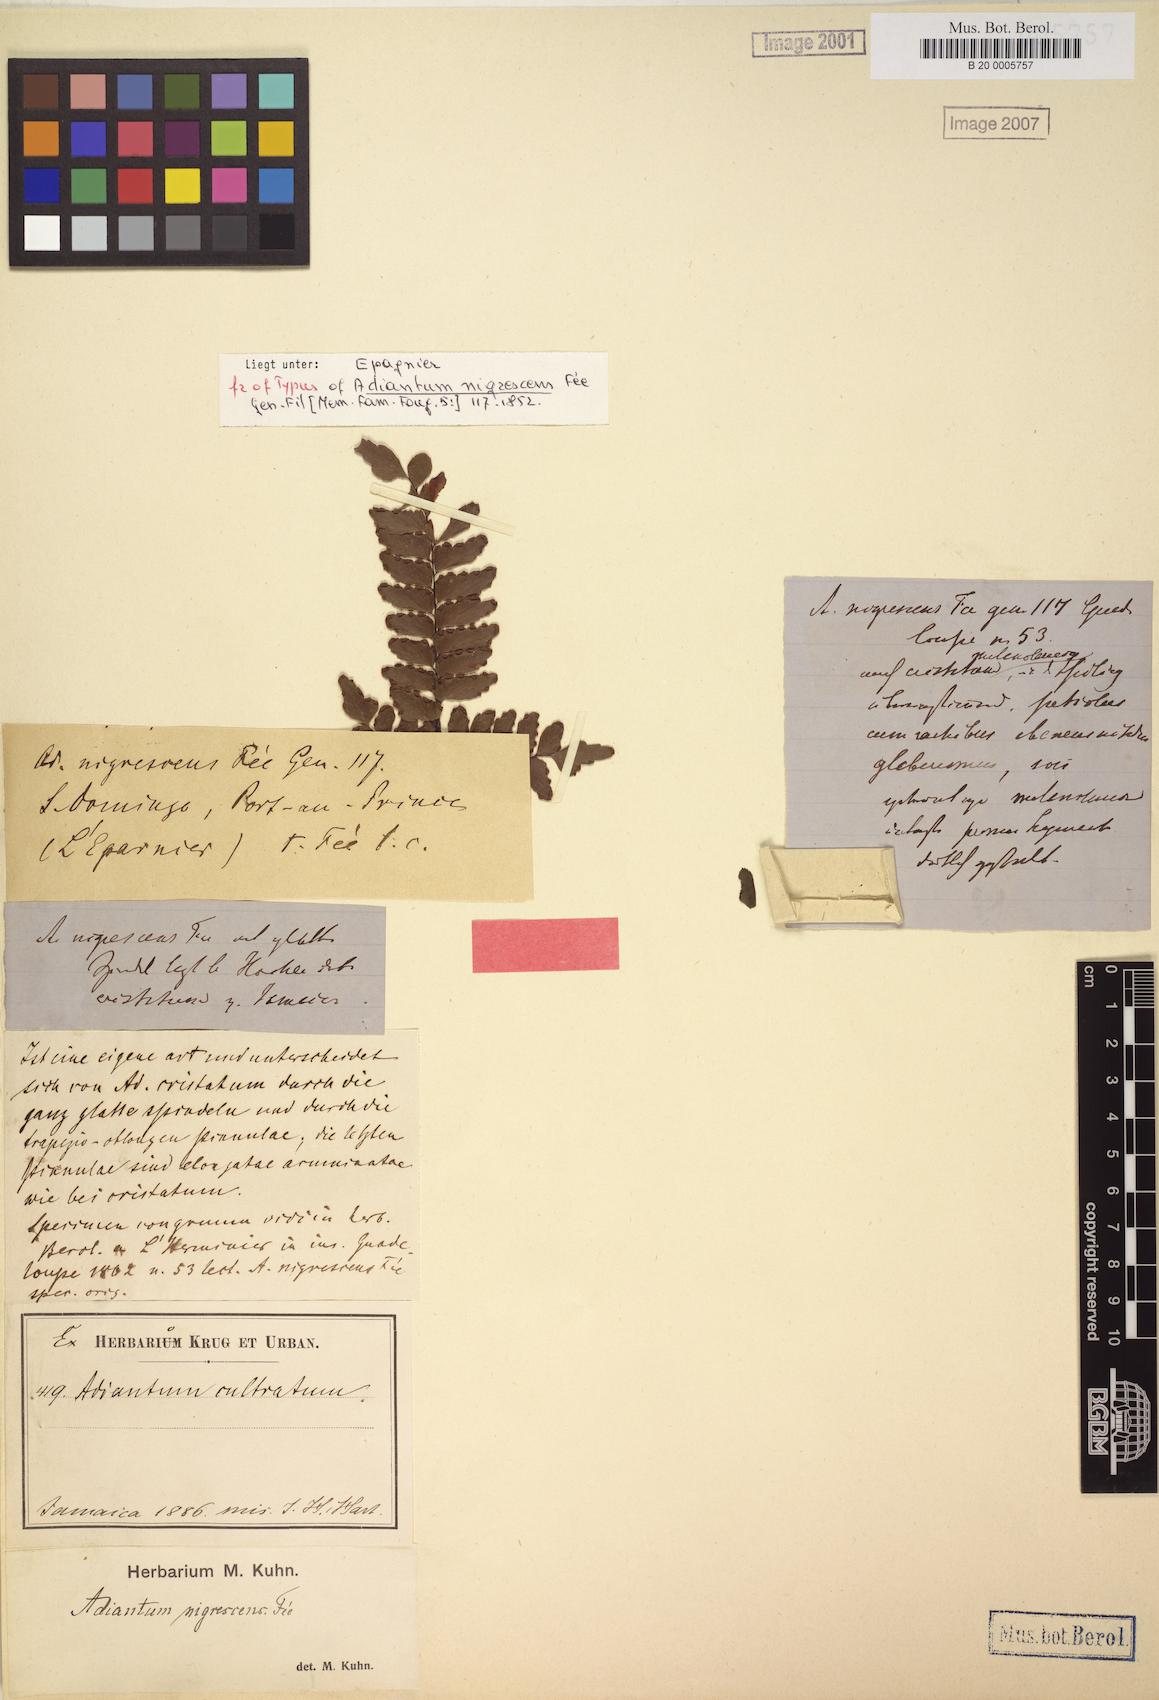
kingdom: Plantae
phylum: Tracheophyta
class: Polypodiopsida
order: Polypodiales
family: Pteridaceae
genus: Adiantum
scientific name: Adiantum pyramidale
